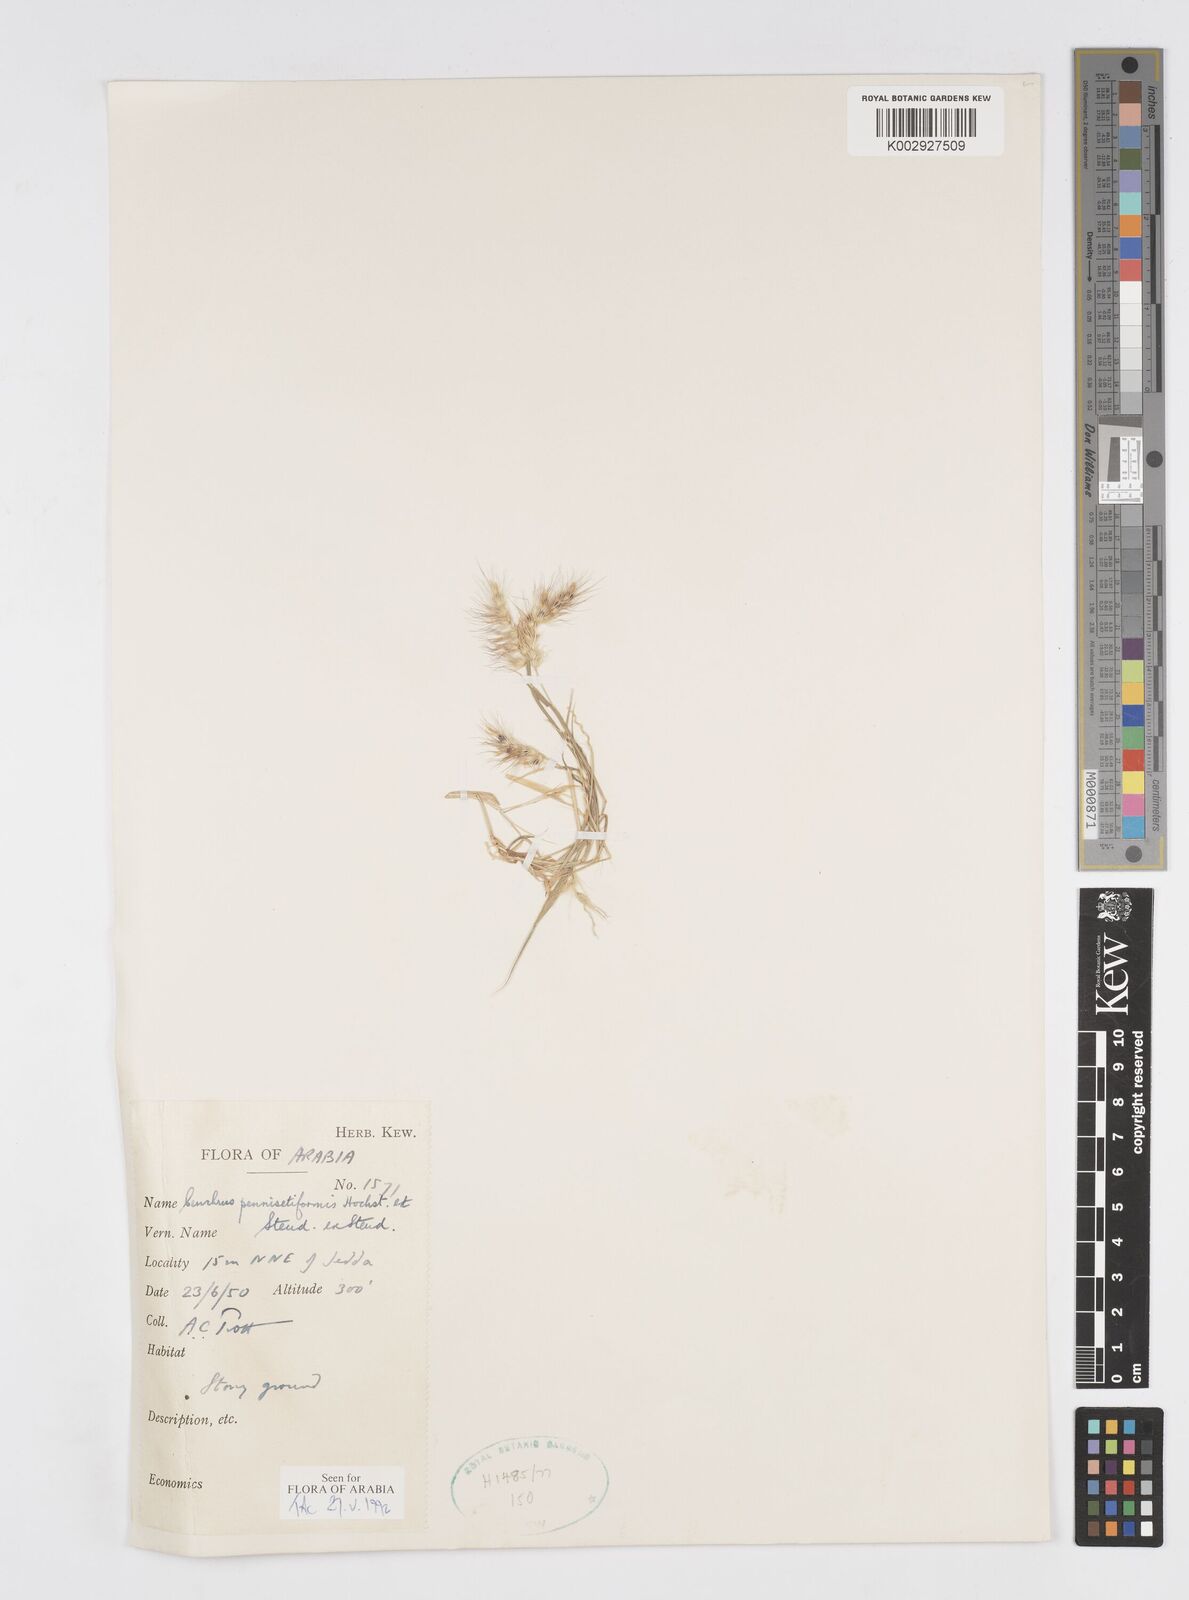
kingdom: Plantae
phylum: Tracheophyta
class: Liliopsida
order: Poales
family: Poaceae
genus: Cenchrus
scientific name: Cenchrus pennisetiformis
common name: Cloncurry
